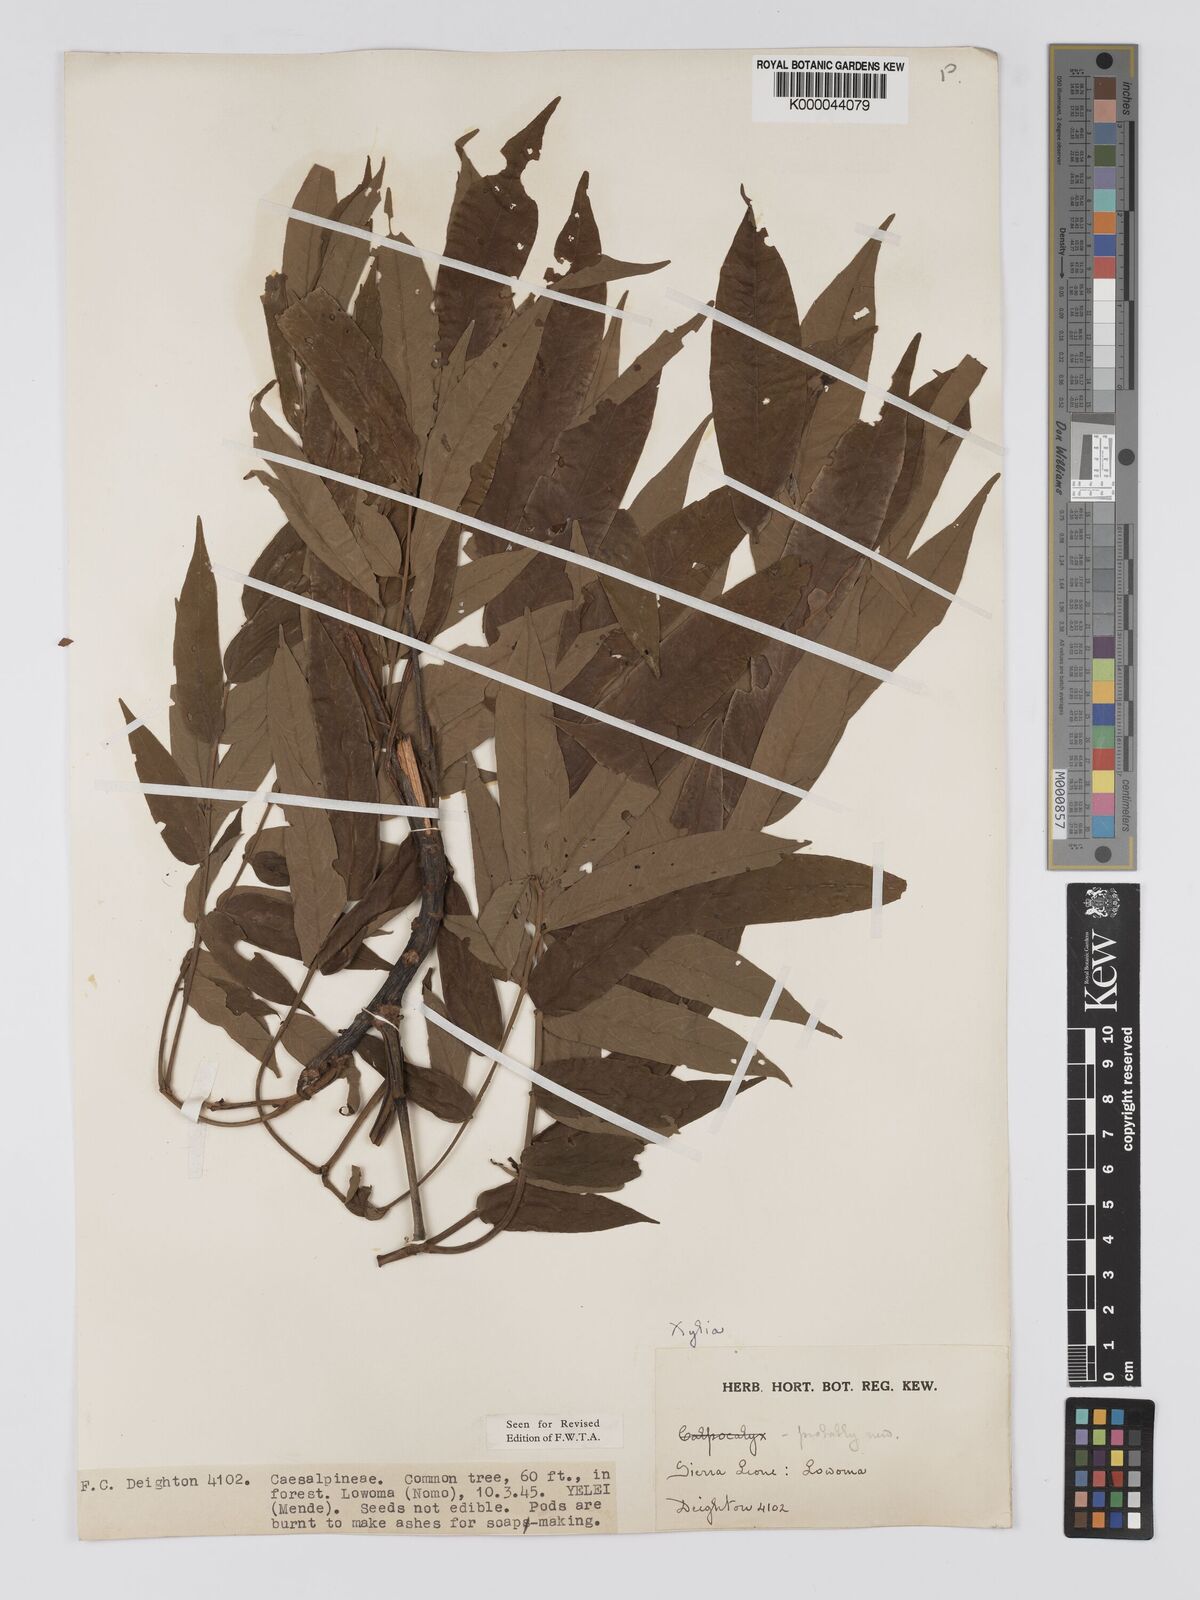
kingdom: Plantae
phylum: Tracheophyta
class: Magnoliopsida
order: Fabales
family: Fabaceae
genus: Xylia
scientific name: Xylia evansii
